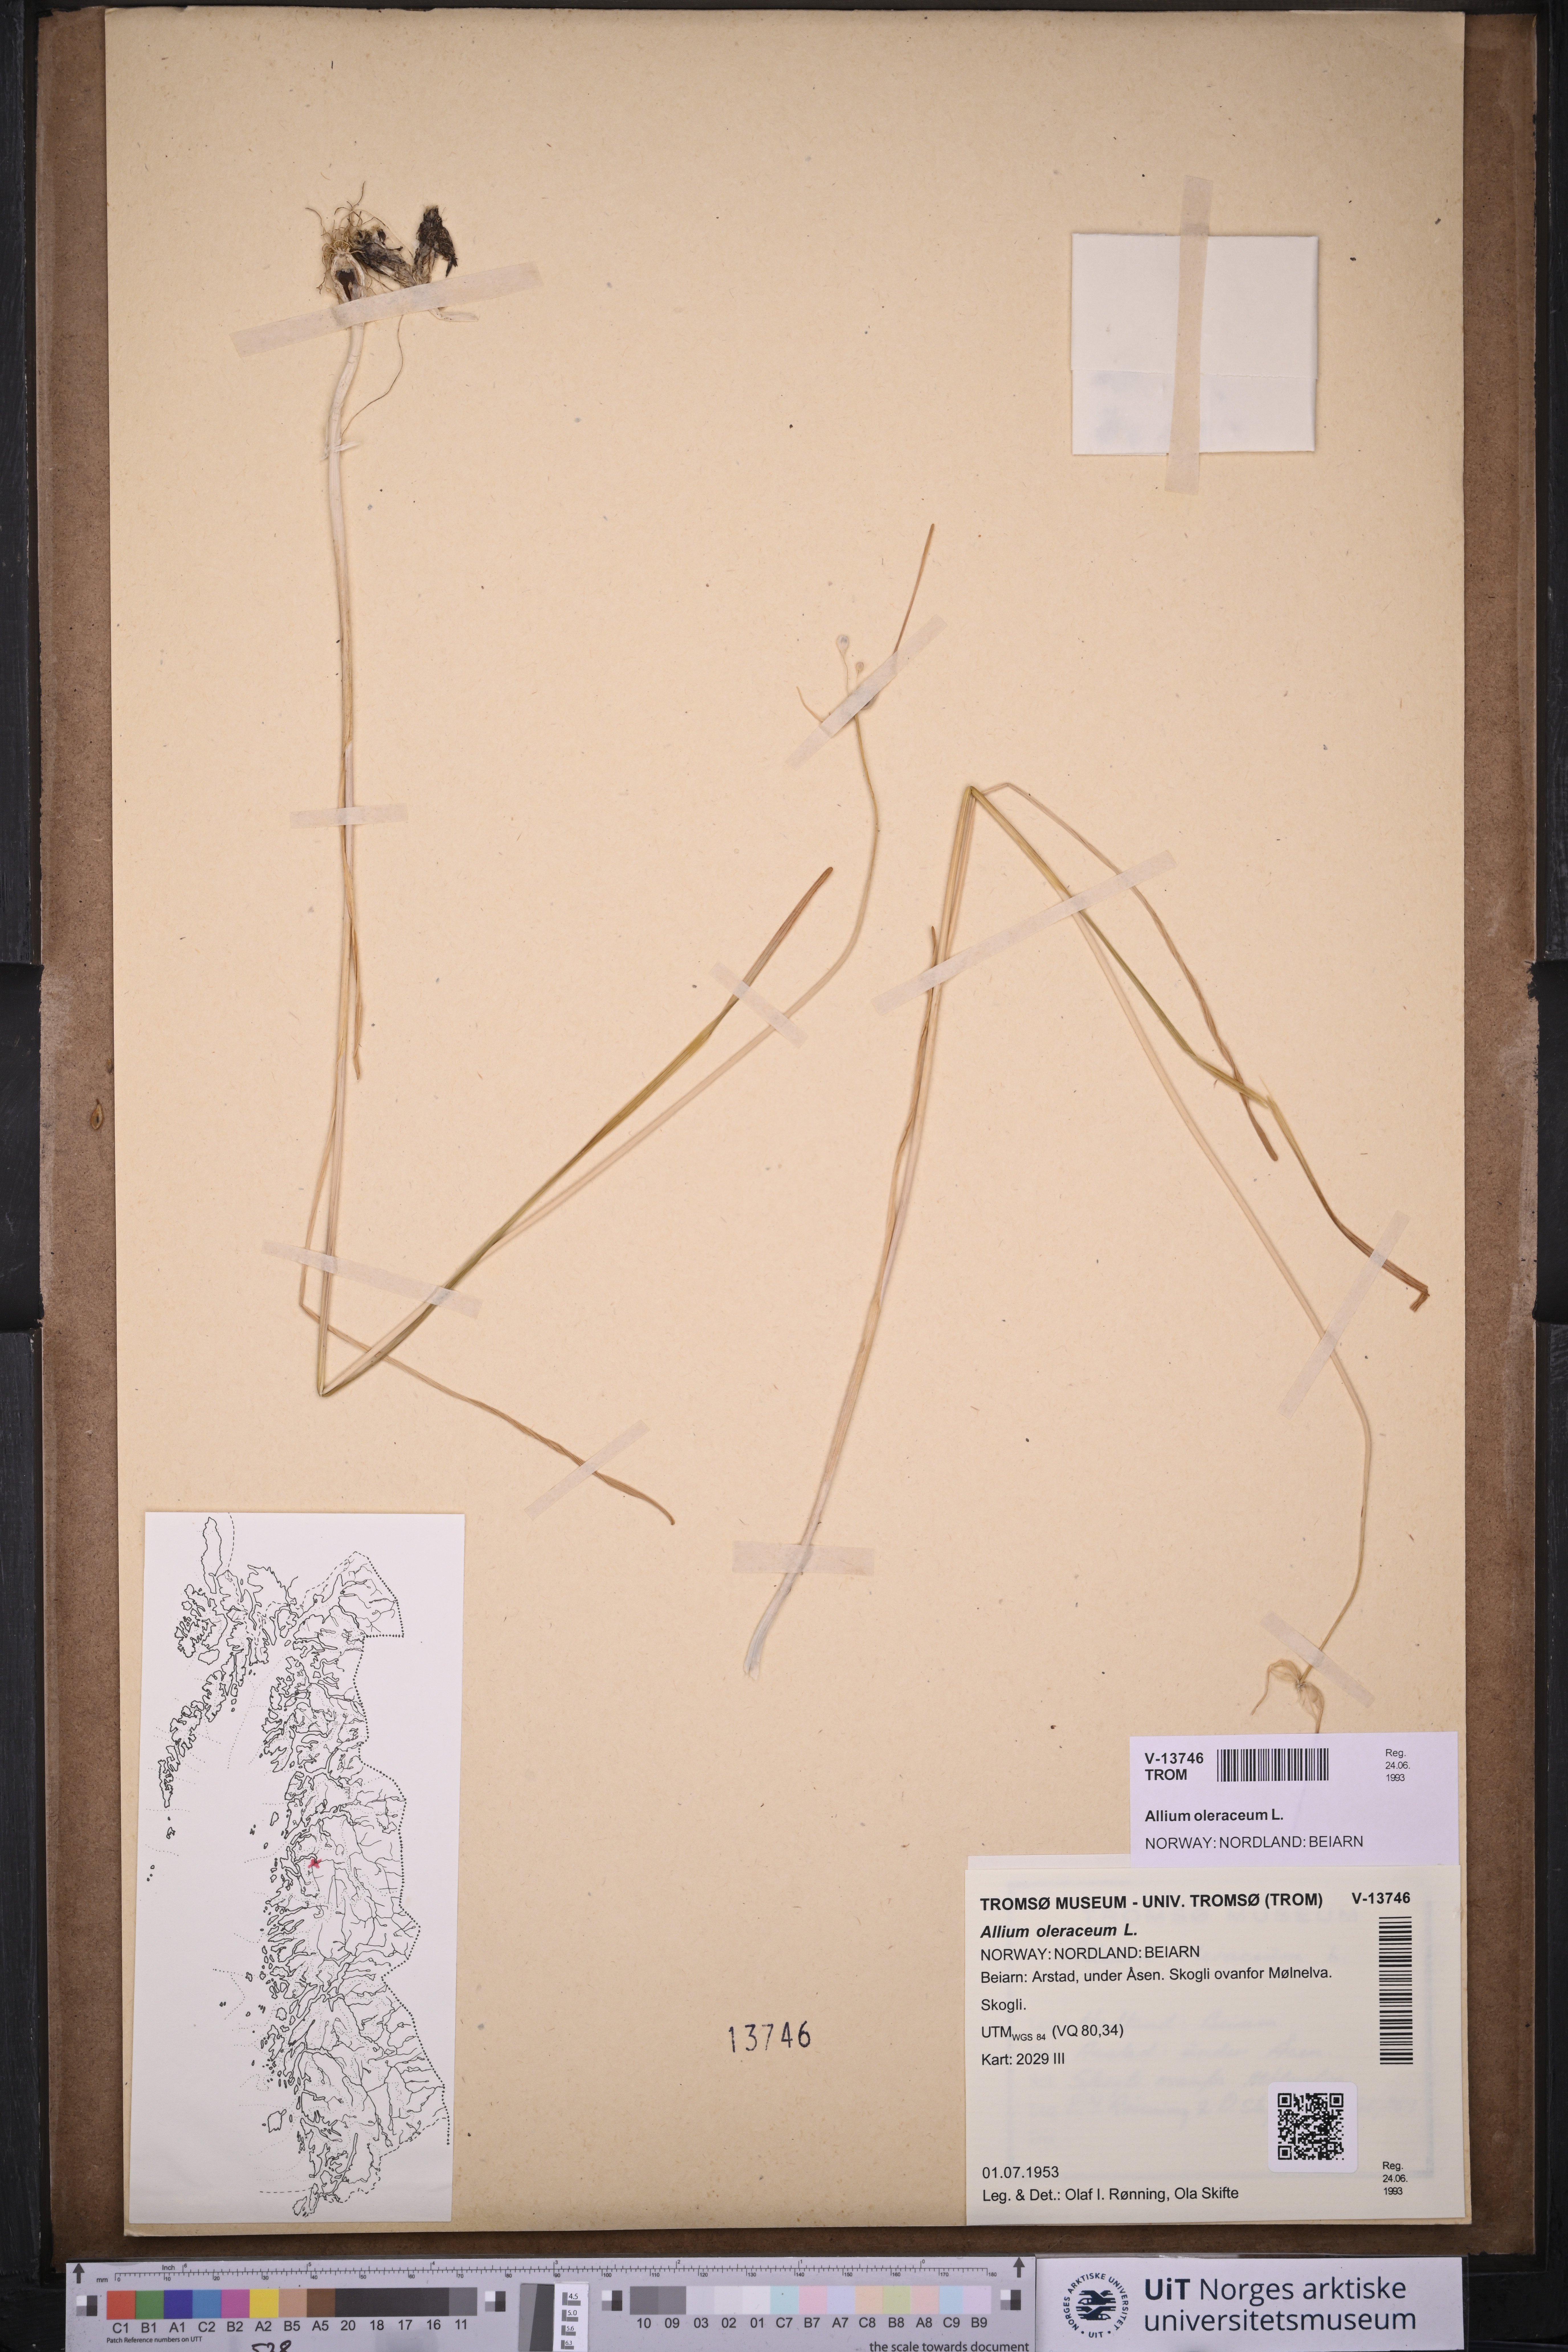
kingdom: Plantae
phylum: Tracheophyta
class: Liliopsida
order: Asparagales
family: Amaryllidaceae
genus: Allium
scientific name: Allium oleraceum
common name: Field garlic
